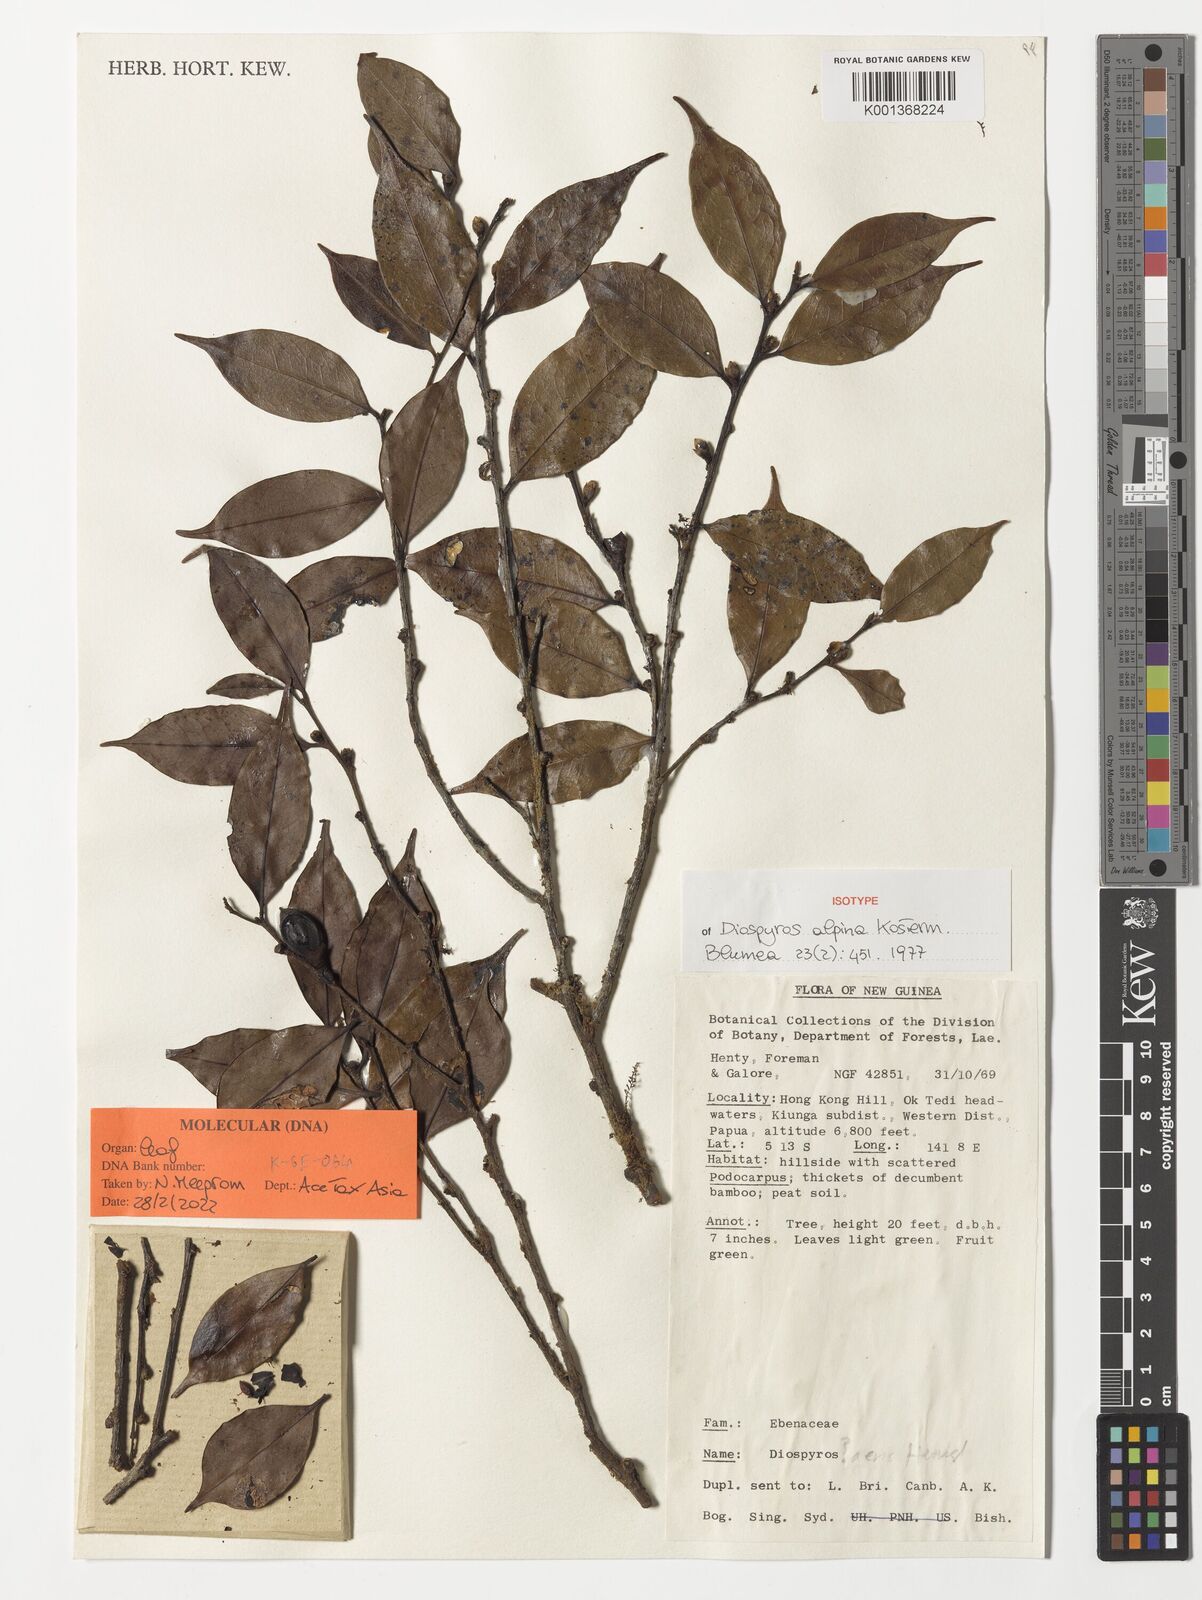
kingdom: Plantae
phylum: Tracheophyta
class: Magnoliopsida
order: Ericales
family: Ebenaceae
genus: Diospyros
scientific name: Diospyros alpina
